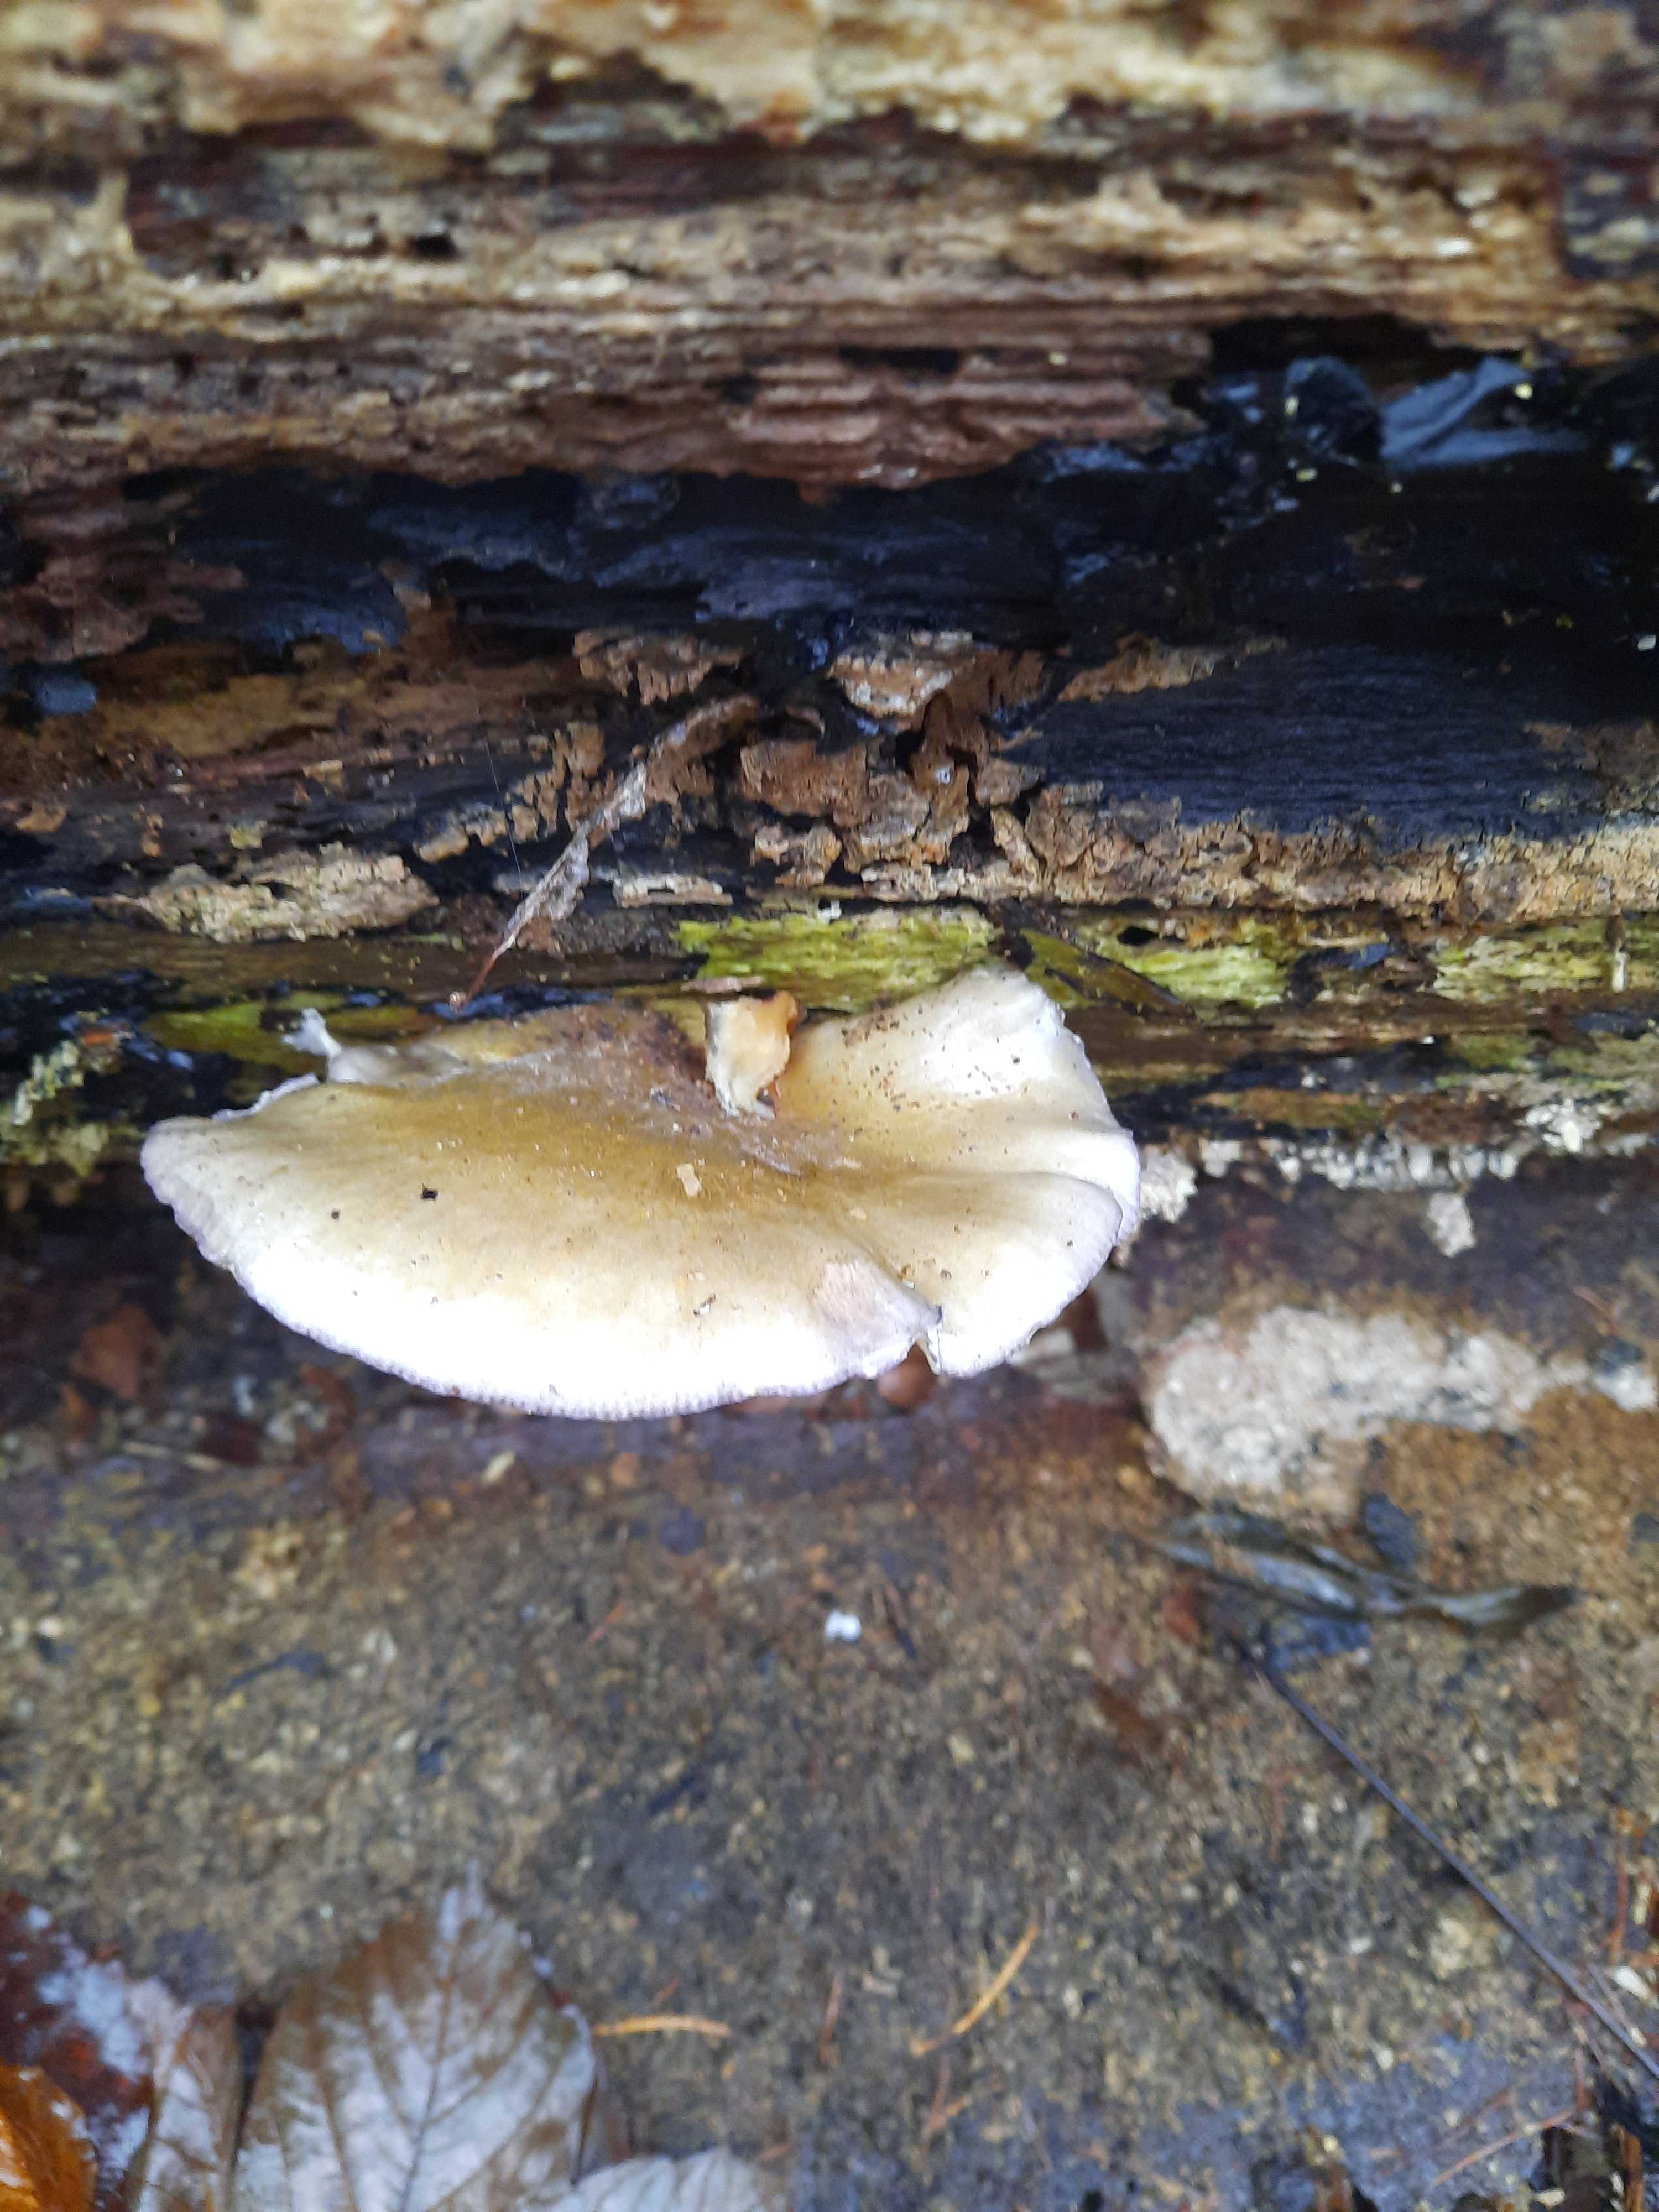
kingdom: Fungi
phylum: Basidiomycota
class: Agaricomycetes
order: Agaricales
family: Sarcomyxaceae
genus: Sarcomyxa
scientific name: Sarcomyxa serotina
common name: gummihat
